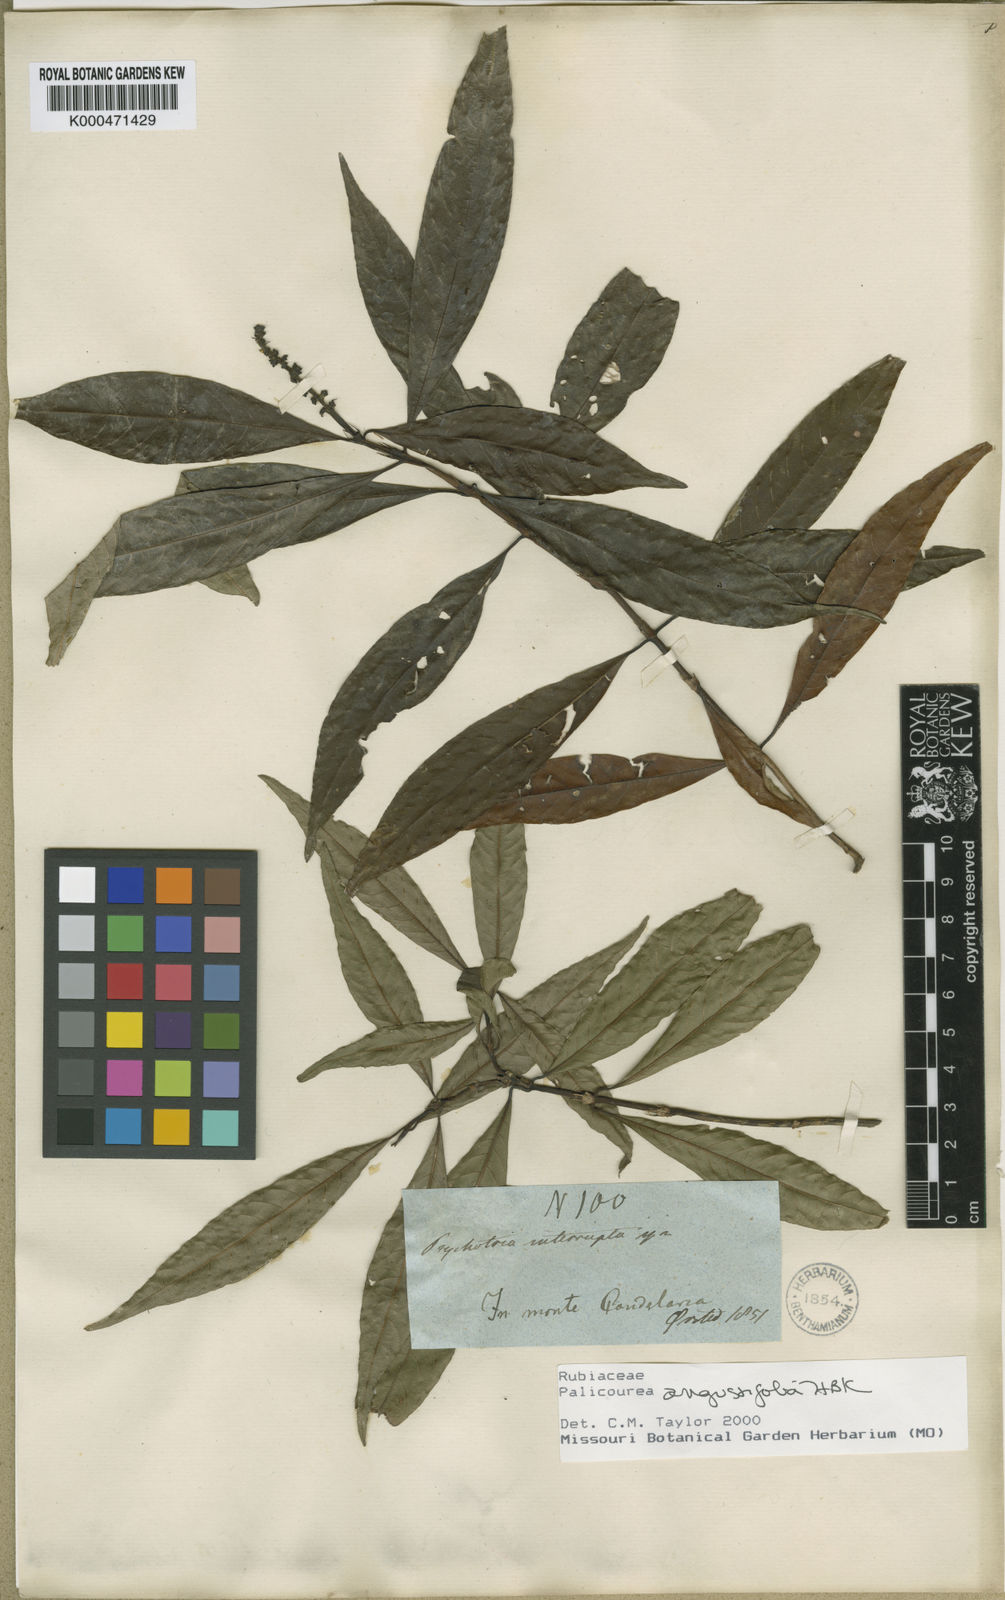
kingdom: Plantae
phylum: Tracheophyta
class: Magnoliopsida
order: Gentianales
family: Rubiaceae
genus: Palicourea
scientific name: Palicourea angustifolia
